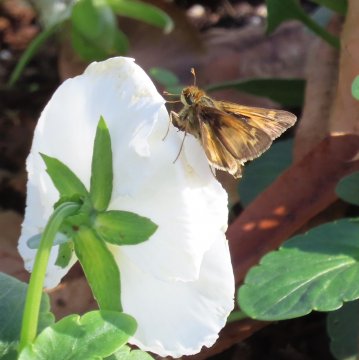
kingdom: Animalia
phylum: Arthropoda
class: Insecta
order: Lepidoptera
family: Hesperiidae
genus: Atalopedes
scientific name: Atalopedes campestris
